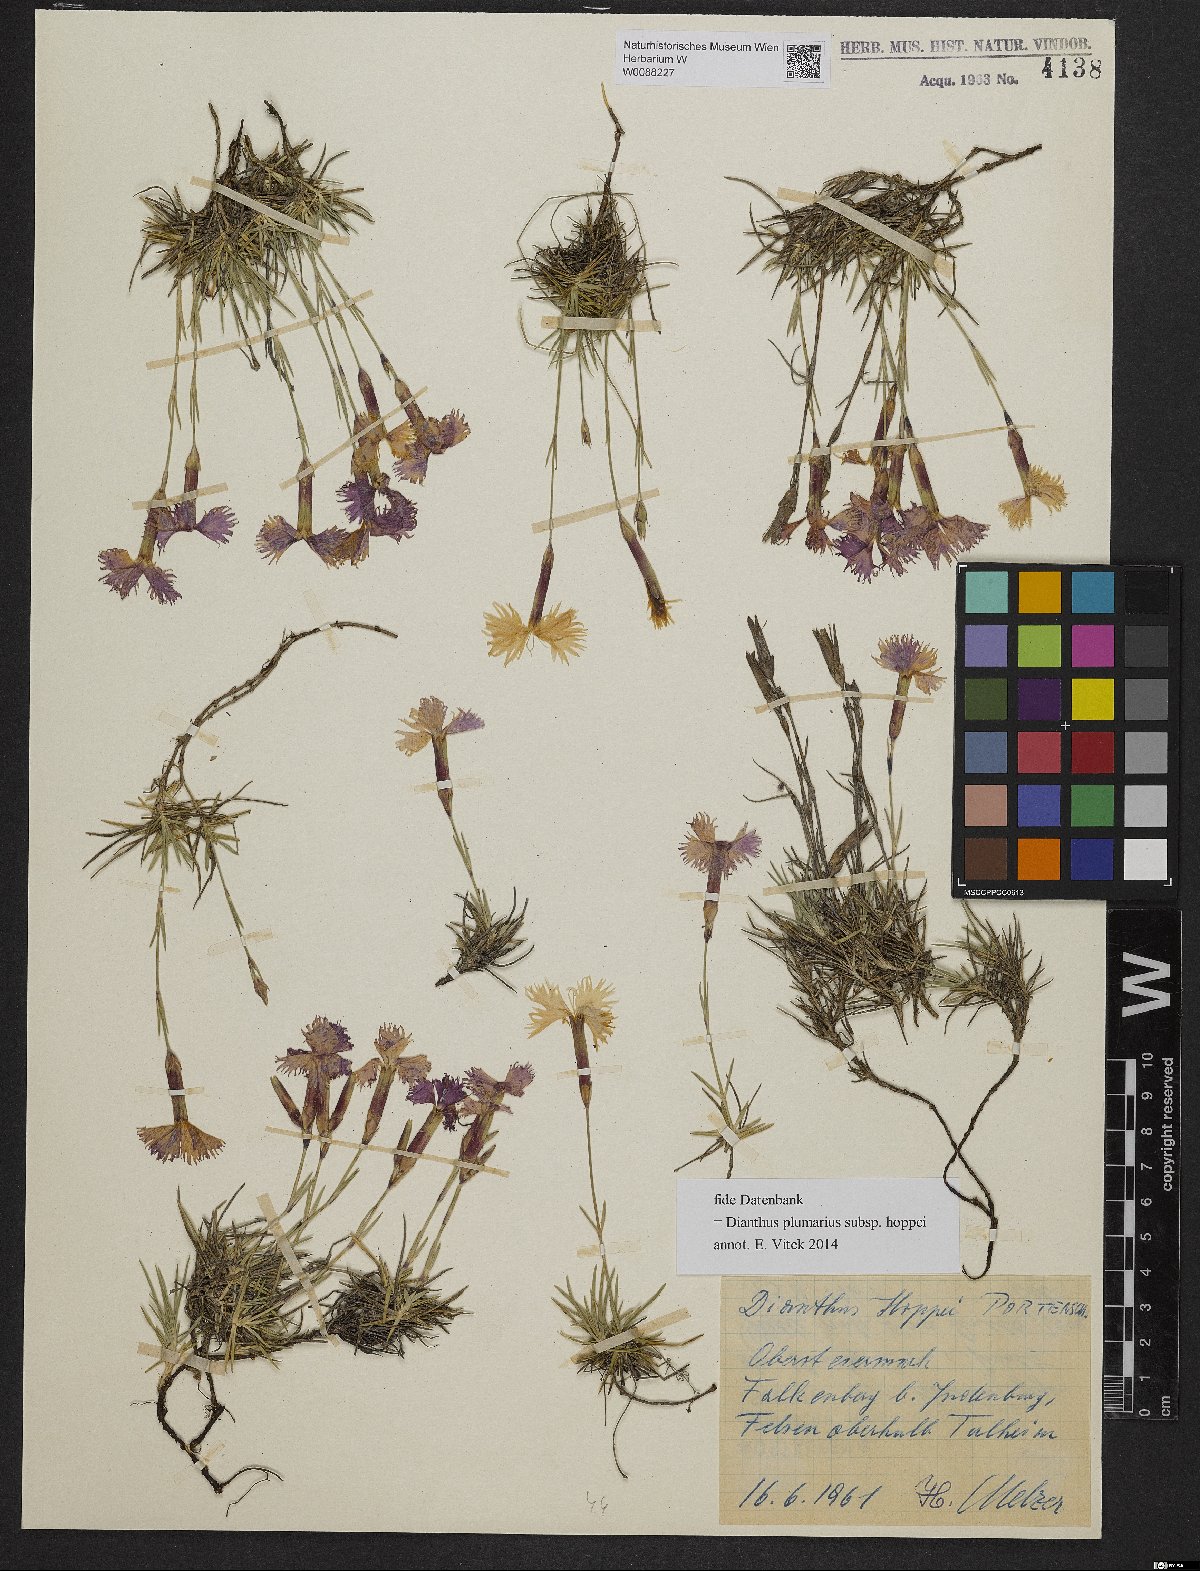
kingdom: Plantae
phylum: Tracheophyta
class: Magnoliopsida
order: Caryophyllales
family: Caryophyllaceae
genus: Dianthus
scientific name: Dianthus plumarius
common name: Pink
